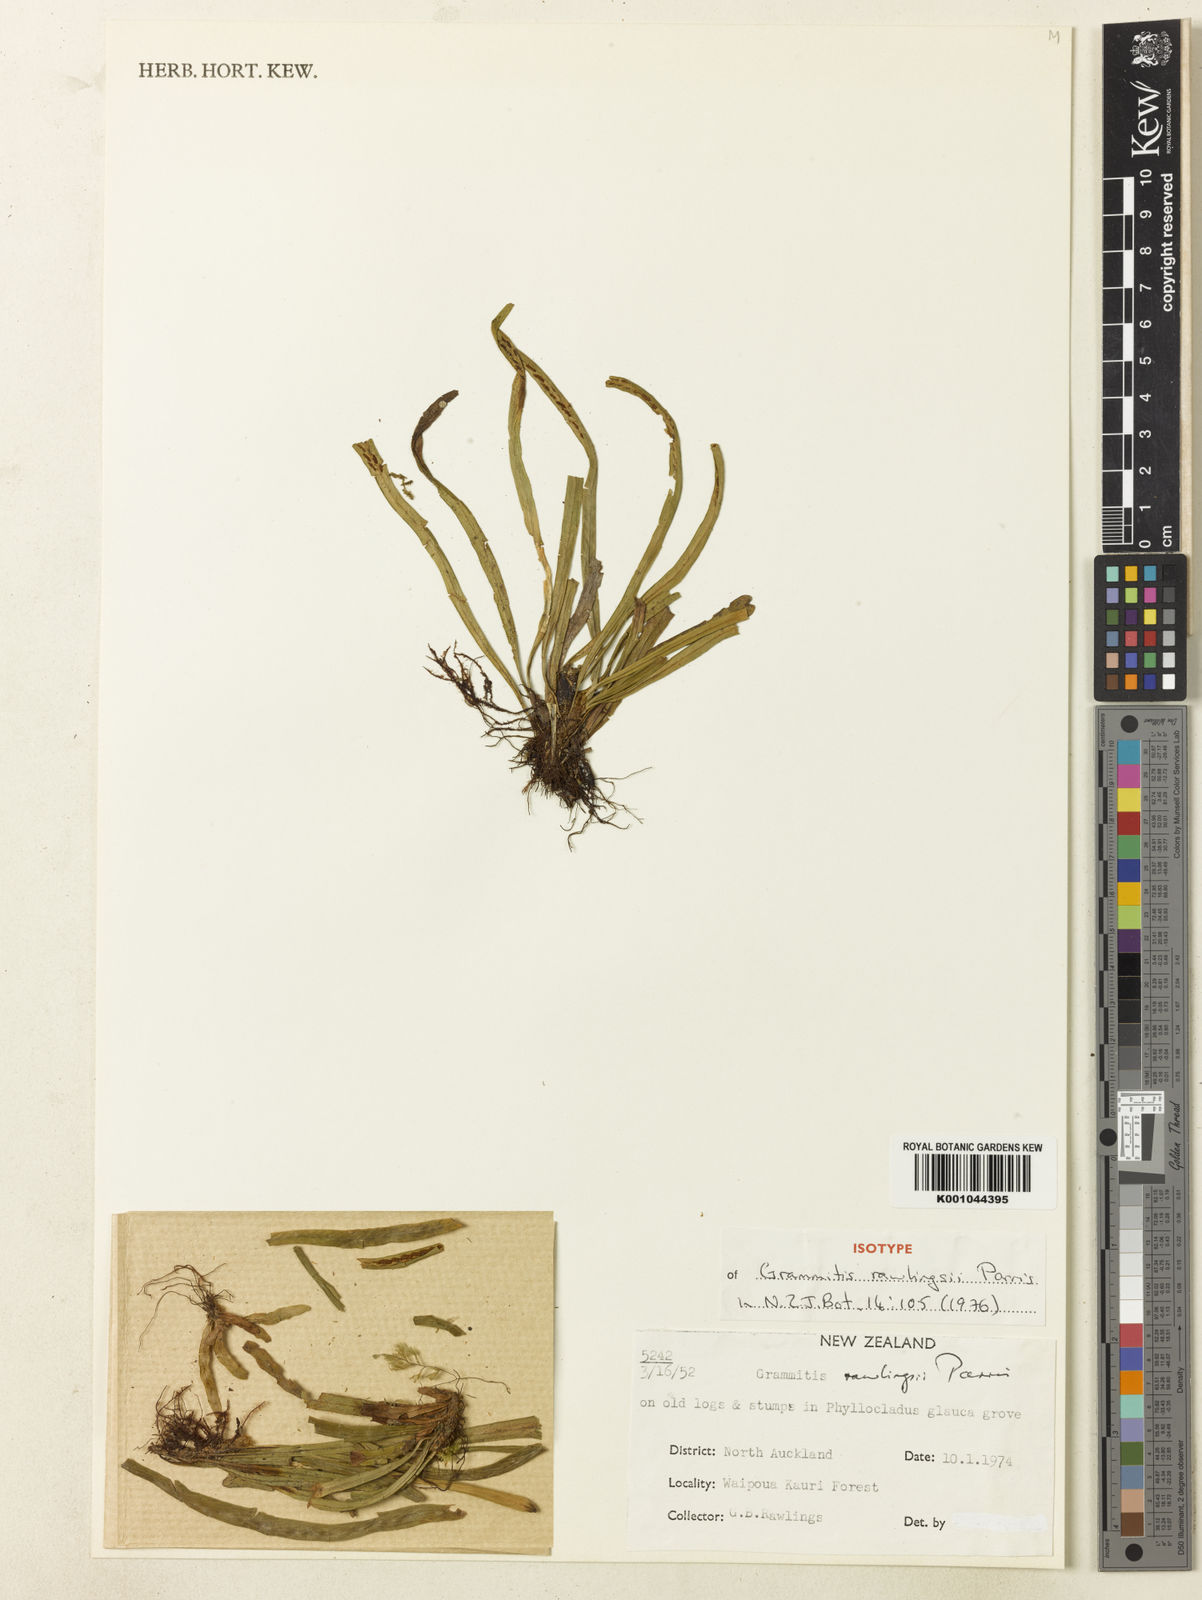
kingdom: Plantae
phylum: Tracheophyta
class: Polypodiopsida
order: Polypodiales
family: Polypodiaceae
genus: Notogrammitis
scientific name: Notogrammitis rawlingsii
